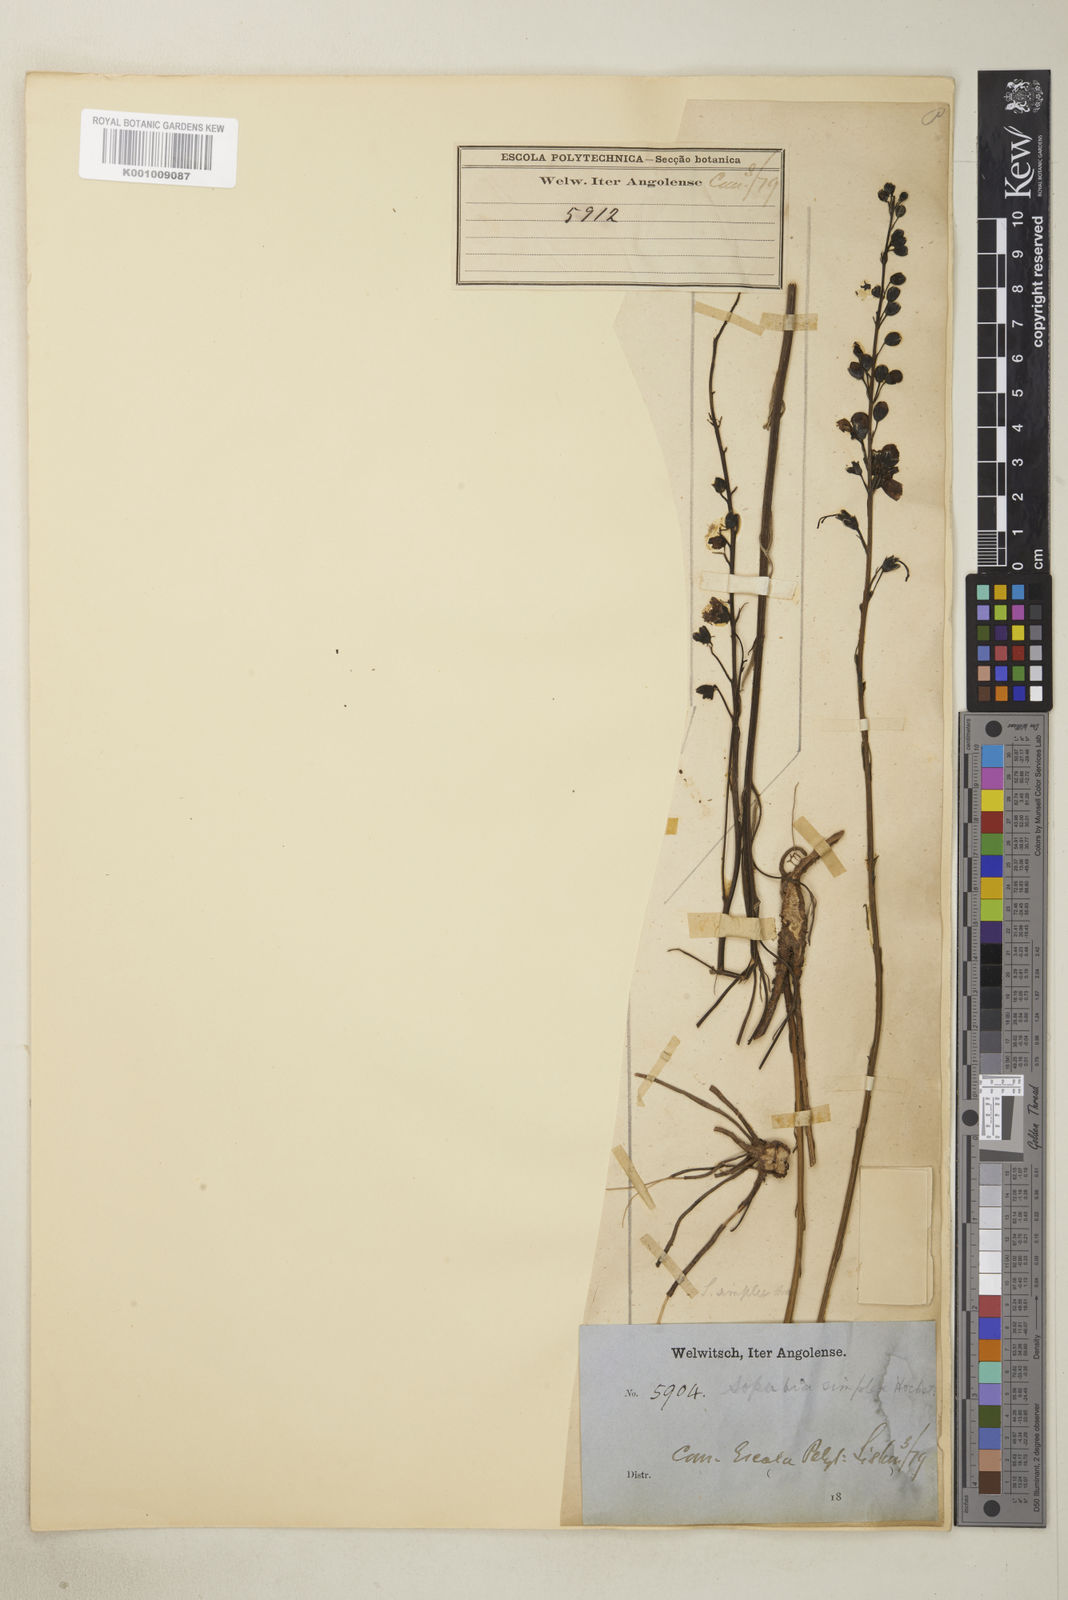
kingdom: Plantae
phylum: Tracheophyta
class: Magnoliopsida
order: Lamiales
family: Orobanchaceae
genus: Sopubia
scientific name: Sopubia simplex
